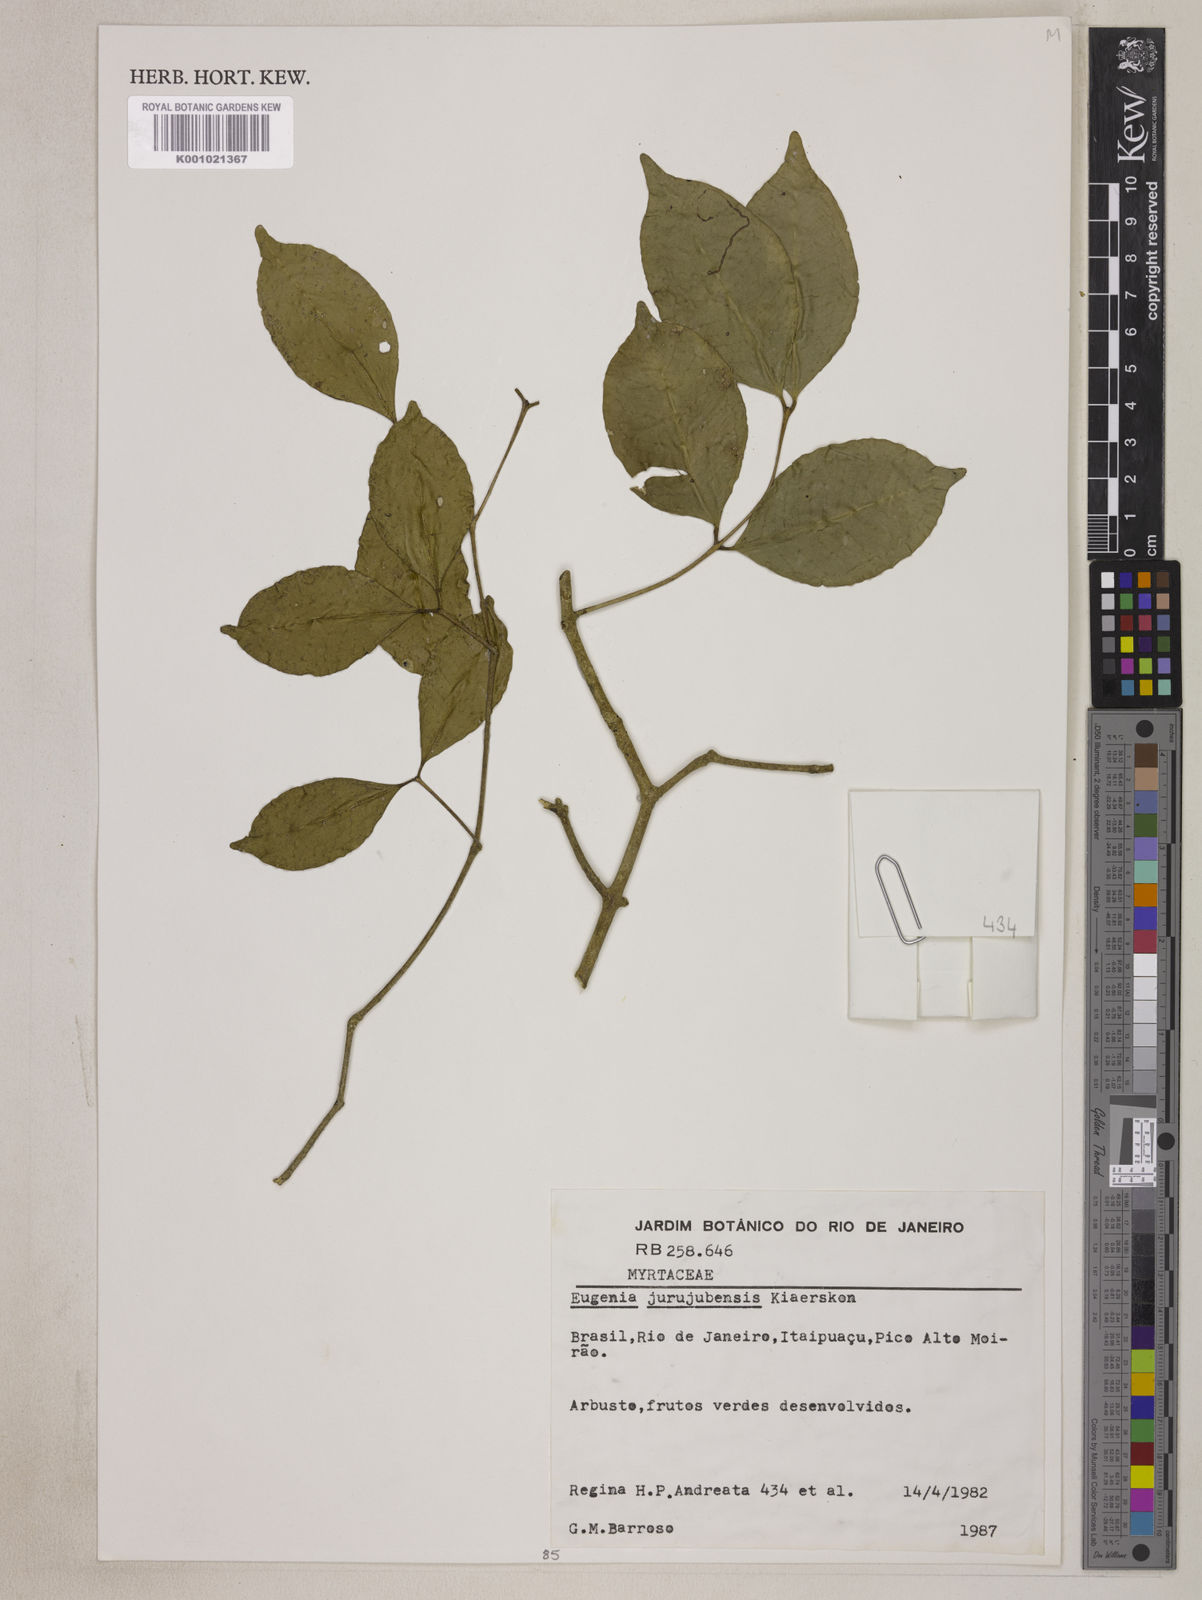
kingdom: Plantae
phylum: Tracheophyta
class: Magnoliopsida
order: Myrtales
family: Myrtaceae
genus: Eugenia
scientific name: Eugenia prasina
